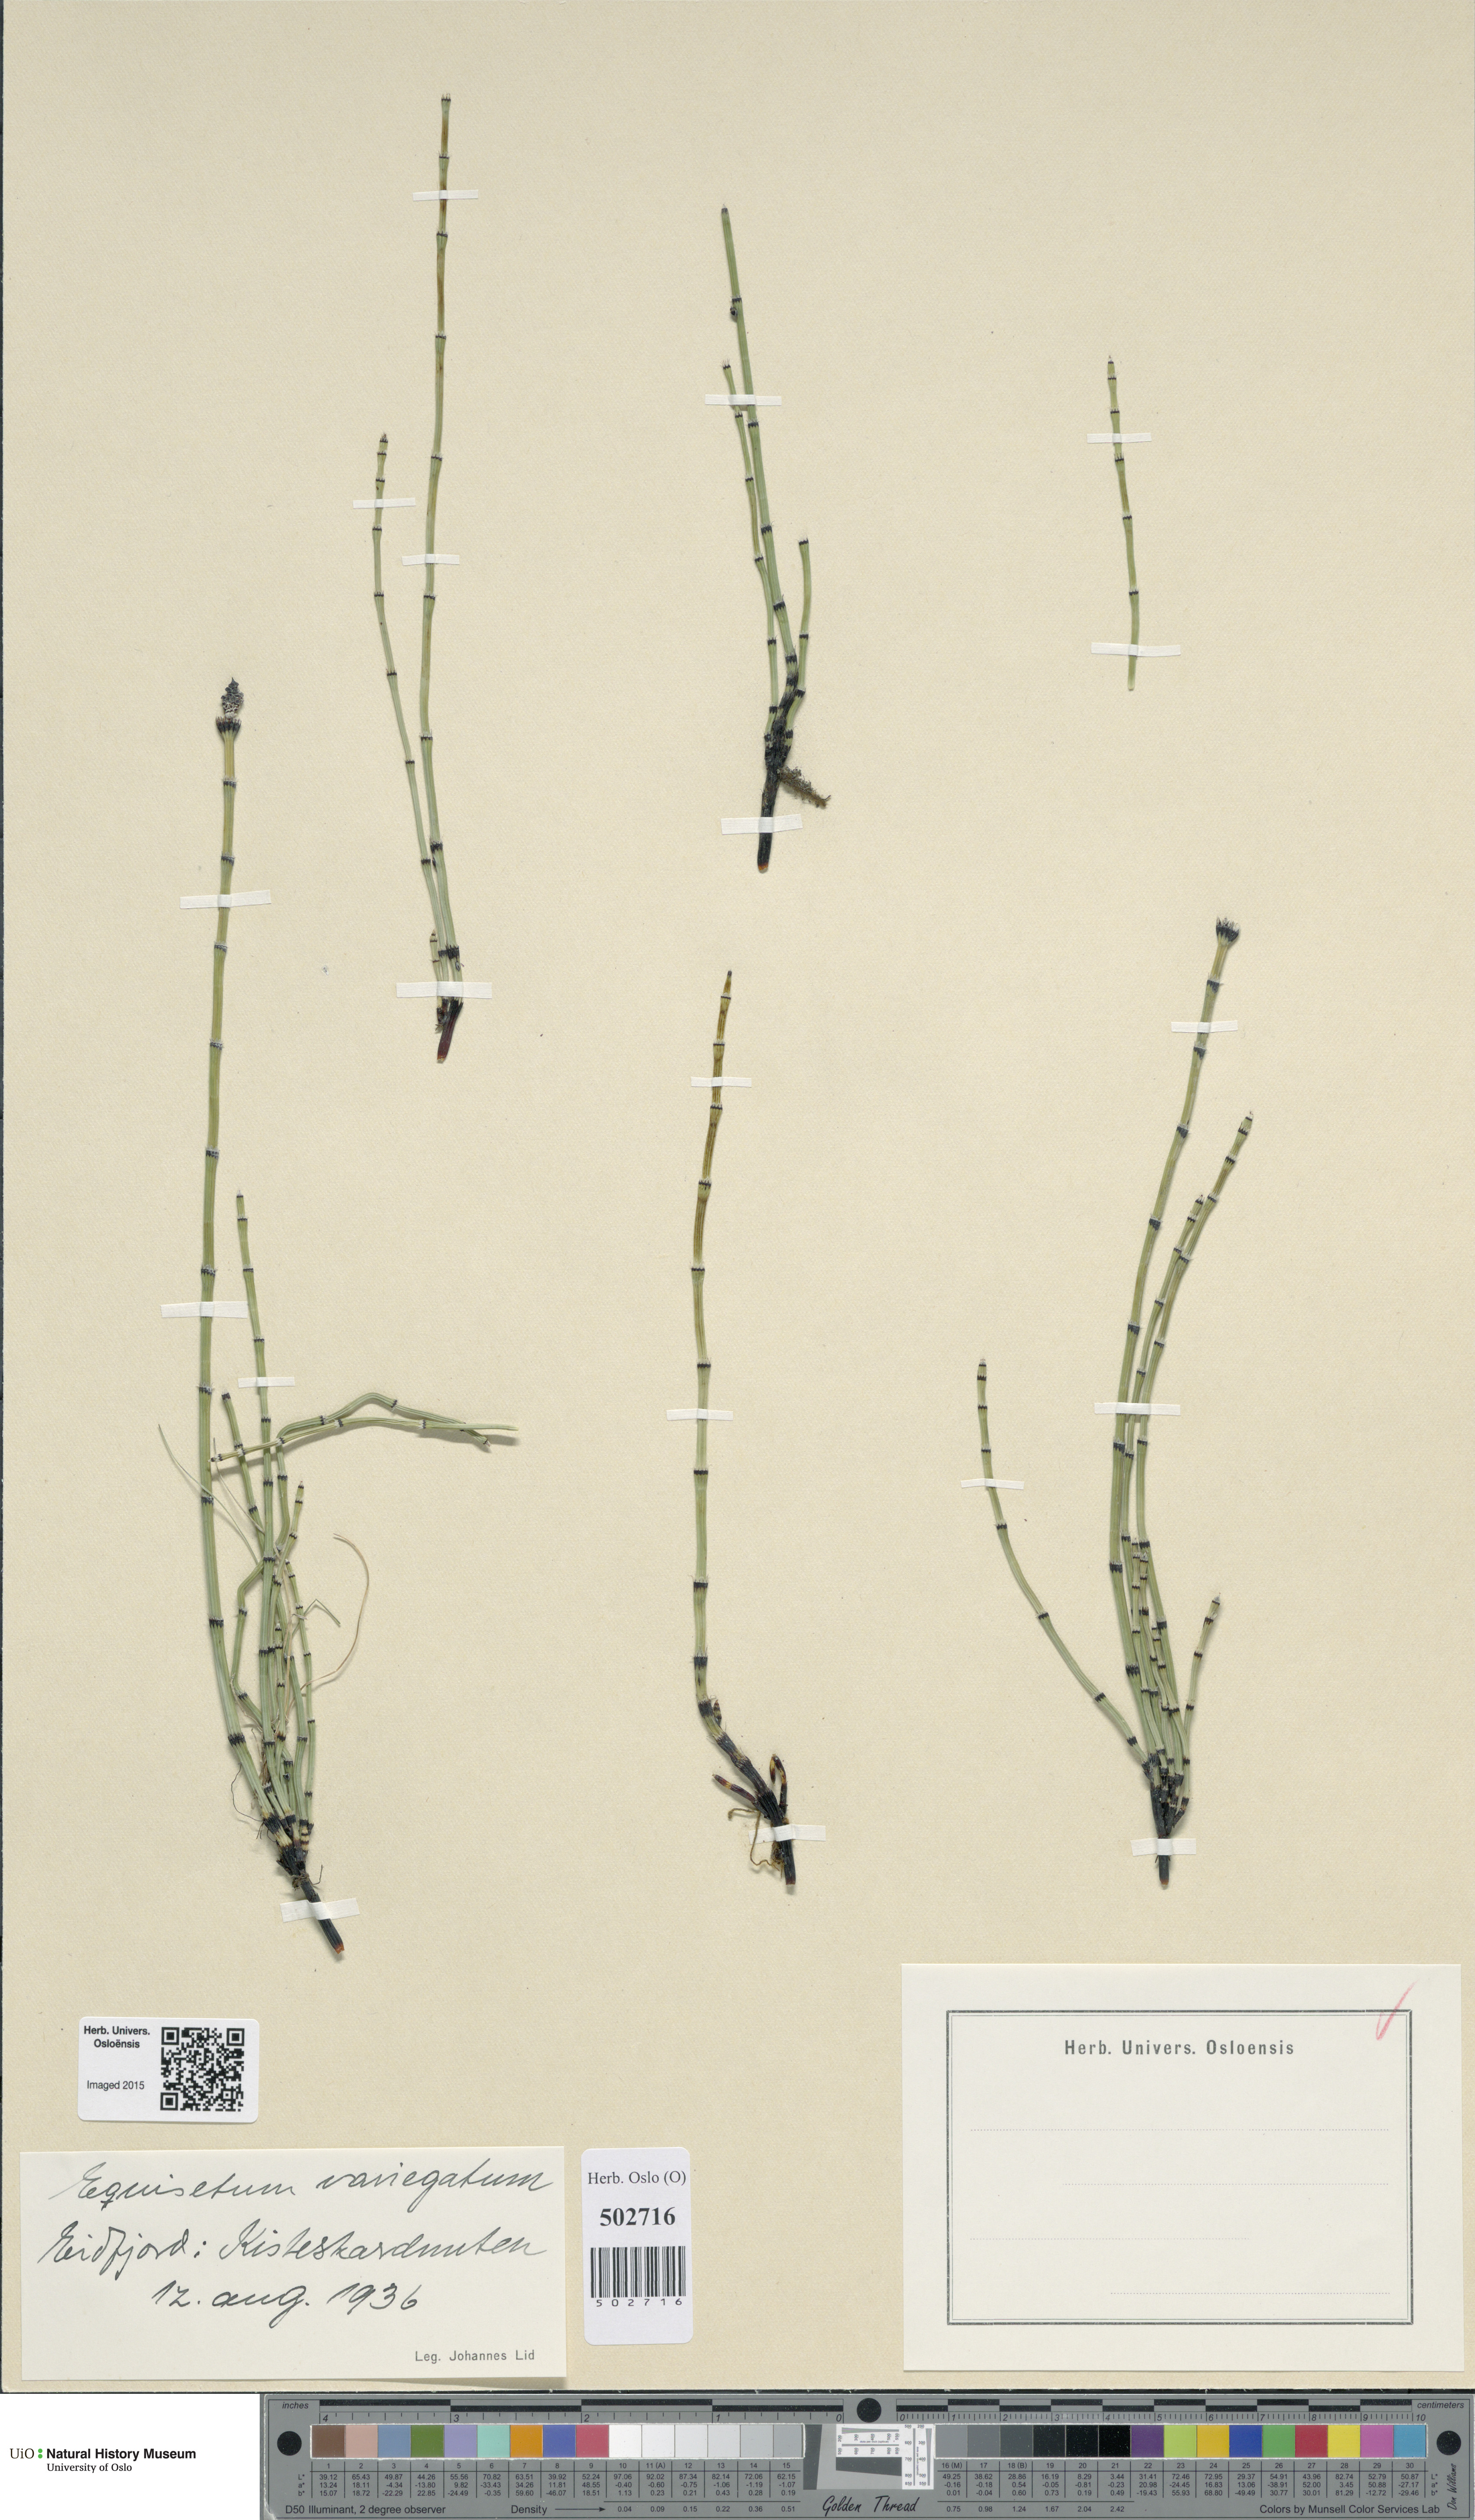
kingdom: Plantae
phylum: Tracheophyta
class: Polypodiopsida
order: Equisetales
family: Equisetaceae
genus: Equisetum
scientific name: Equisetum variegatum
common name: Variegated horsetail
